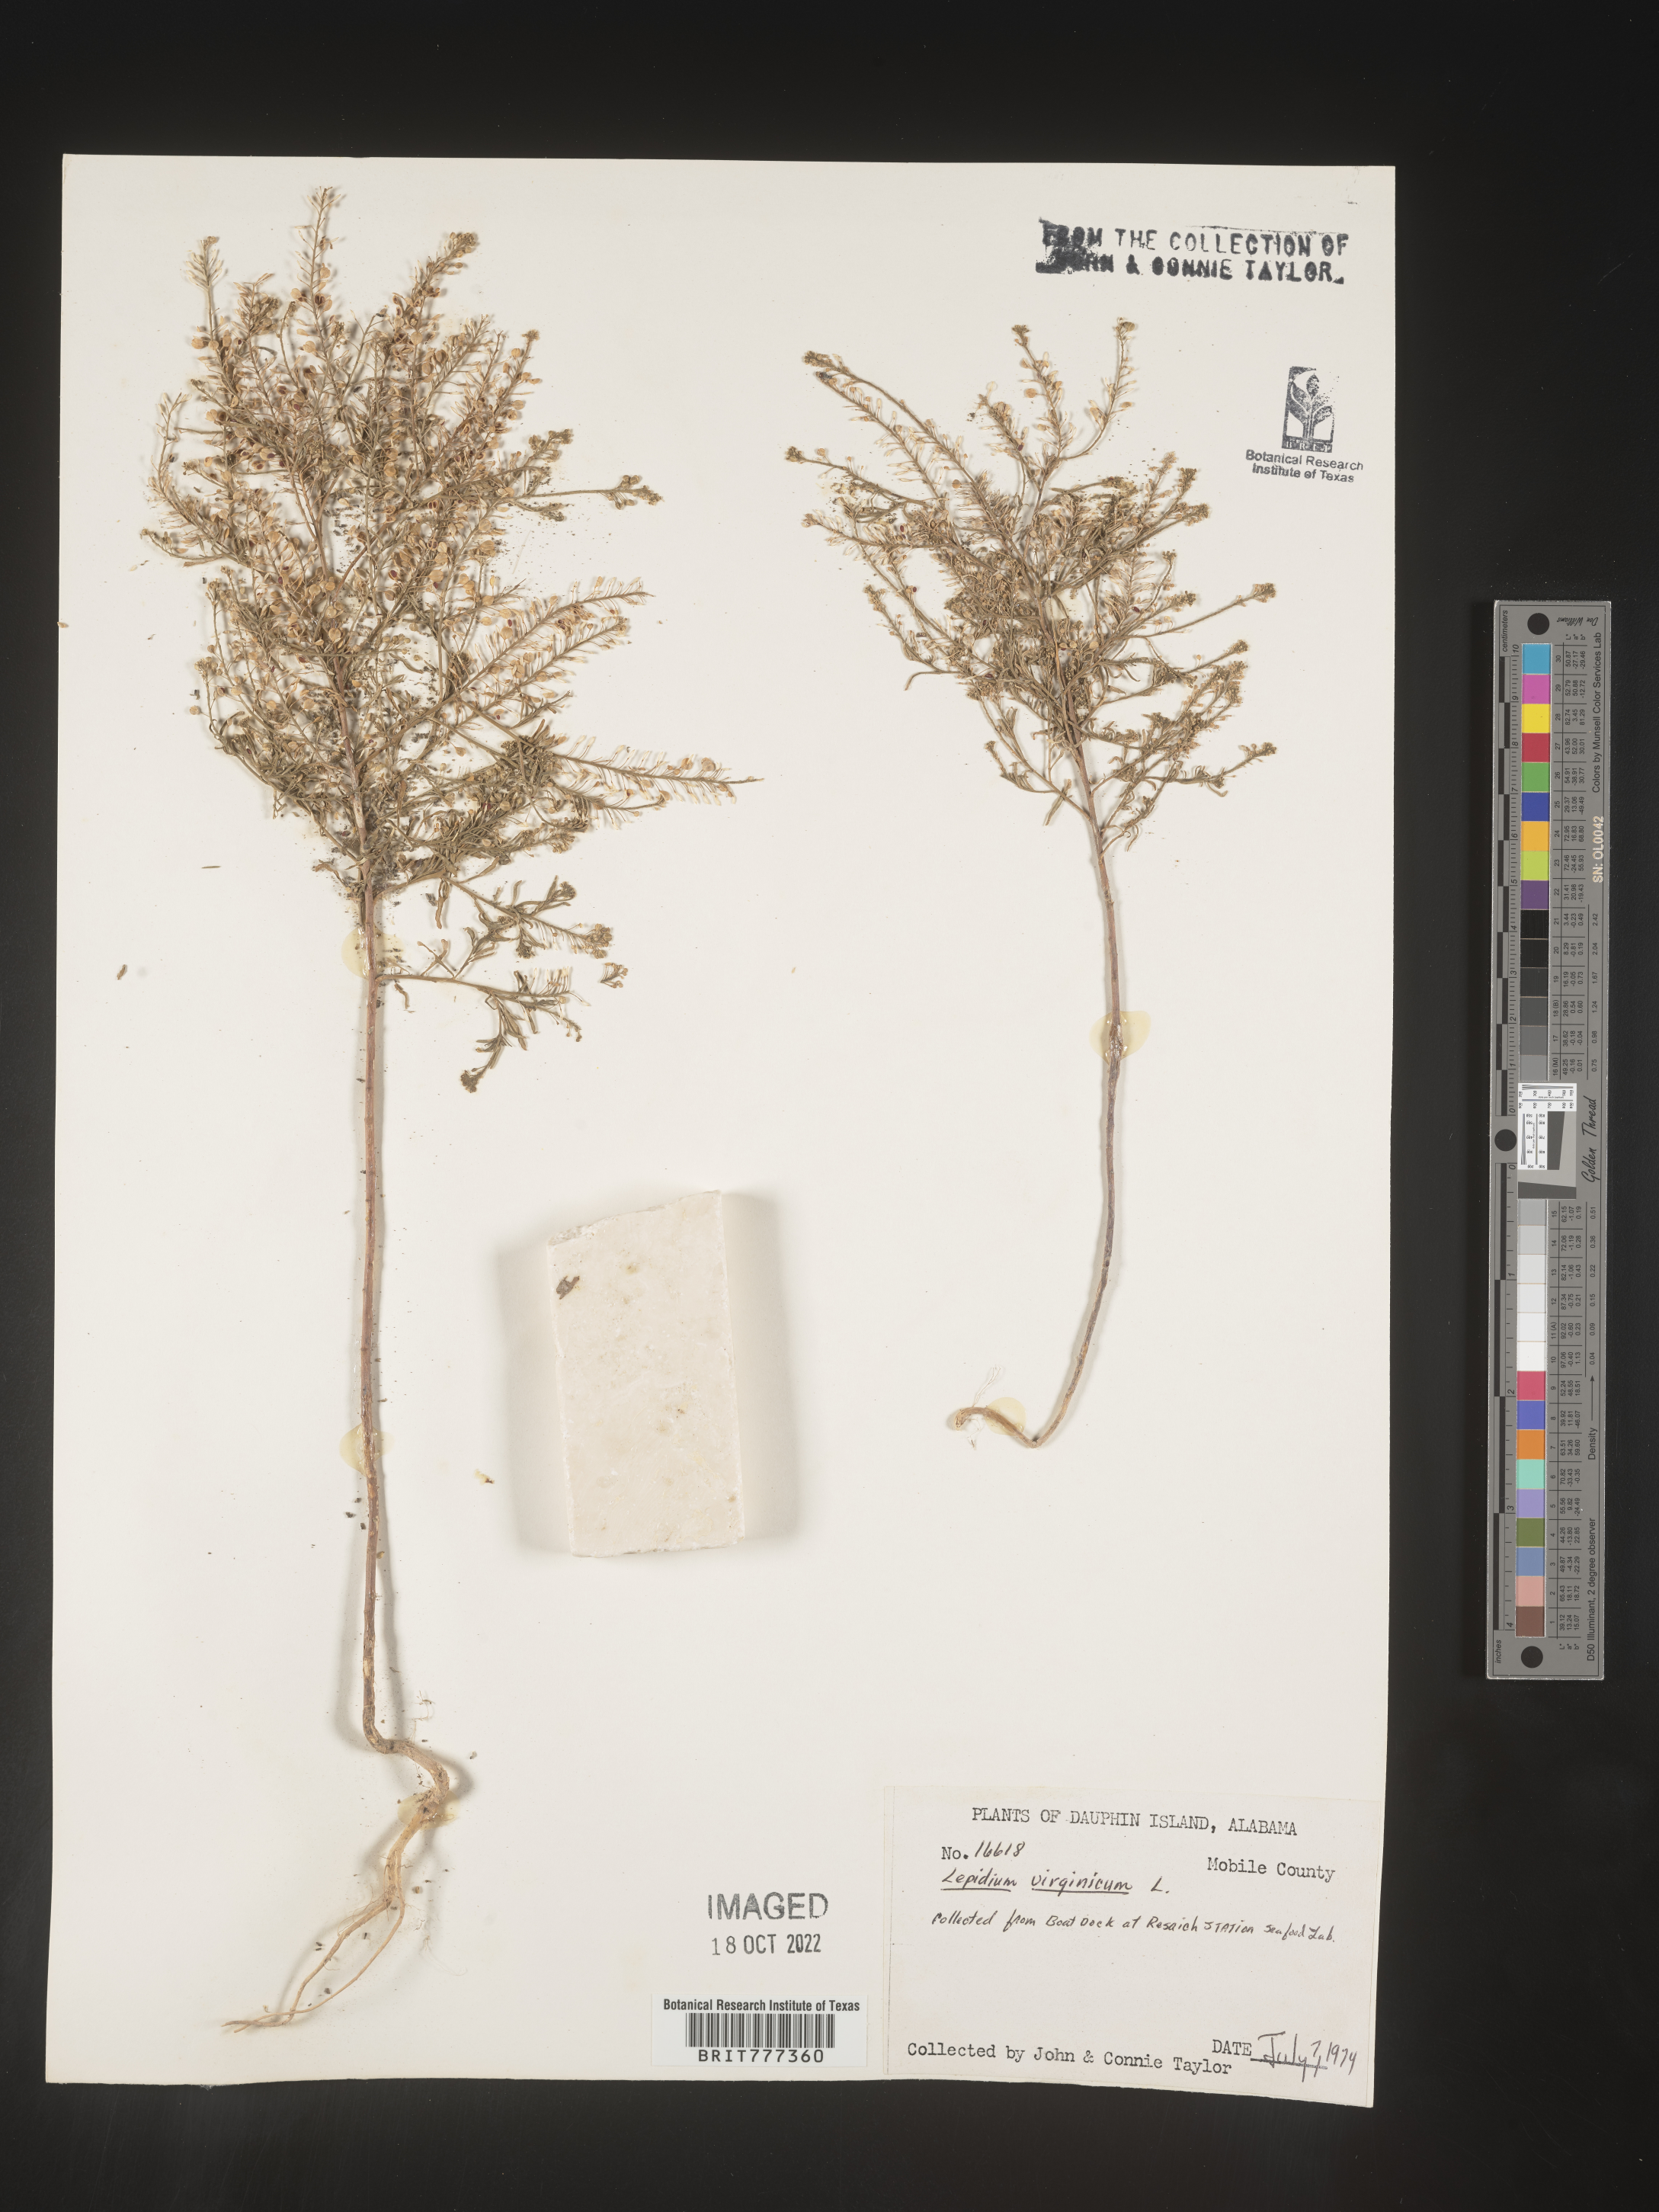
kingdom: Plantae
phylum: Tracheophyta
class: Magnoliopsida
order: Brassicales
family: Brassicaceae
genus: Lepidium
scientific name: Lepidium virginicum
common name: Least pepperwort
